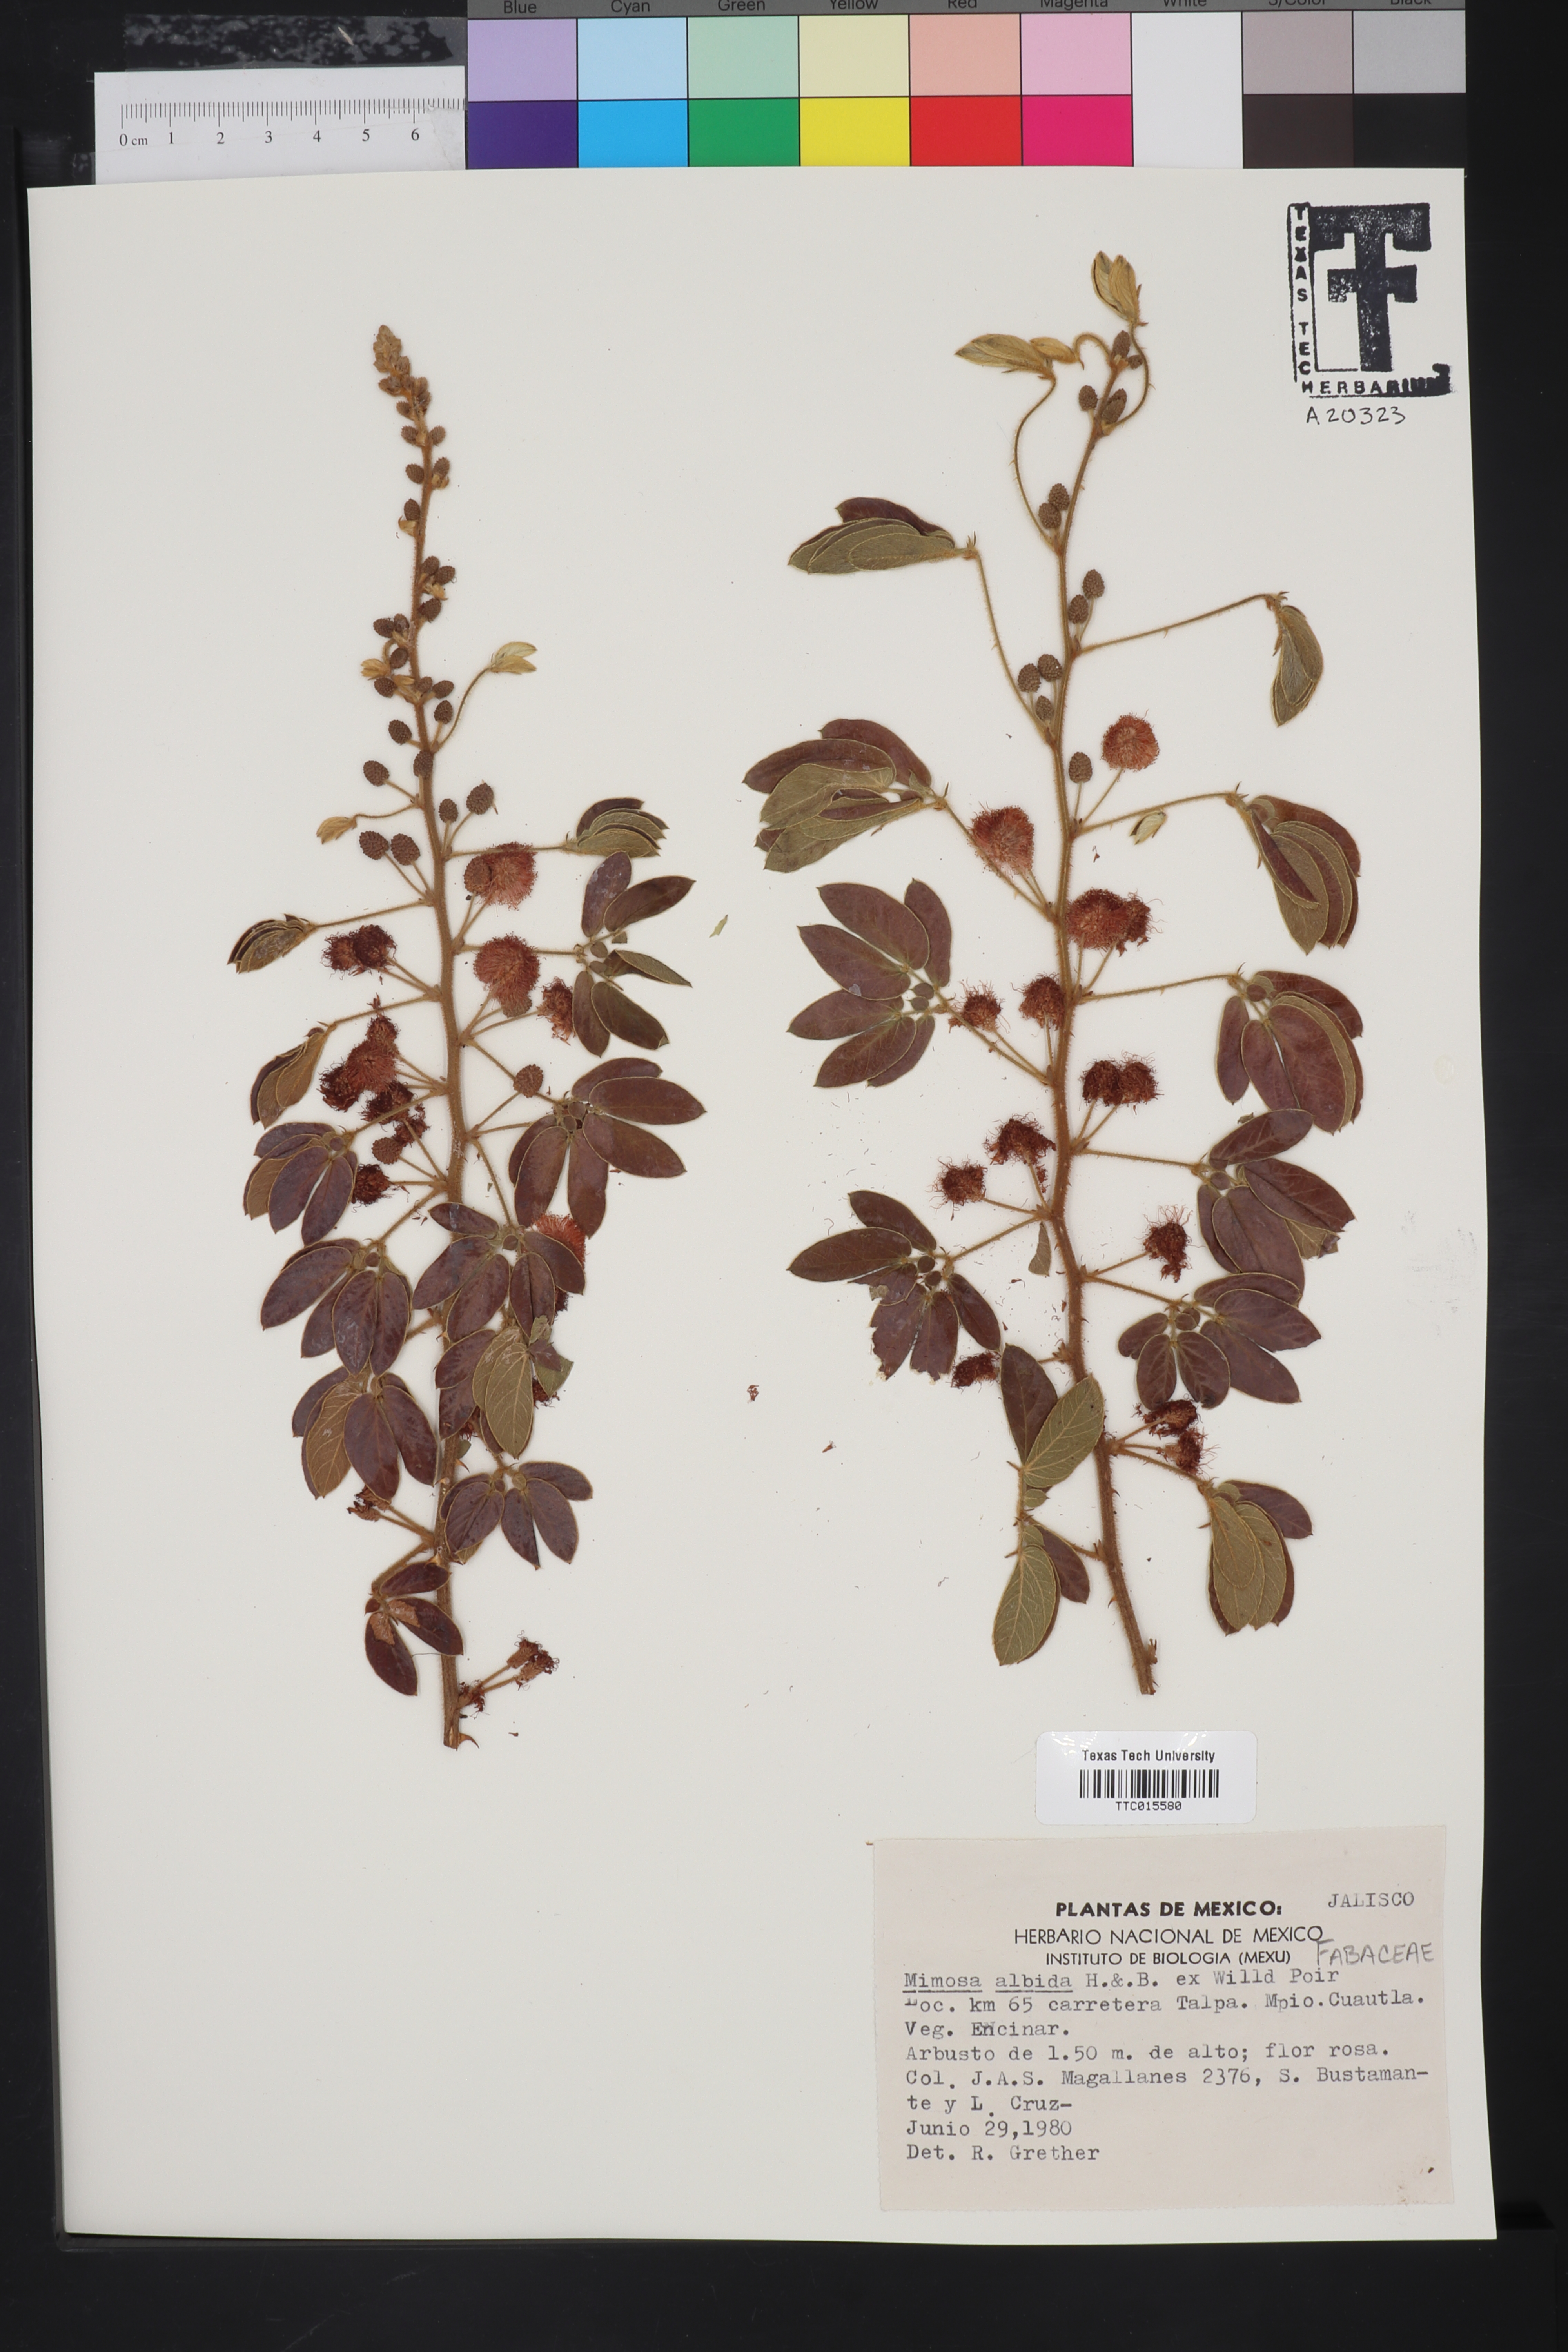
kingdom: Plantae
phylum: Tracheophyta
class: Magnoliopsida
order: Fabales
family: Fabaceae
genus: Mimosa
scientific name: Mimosa albida
